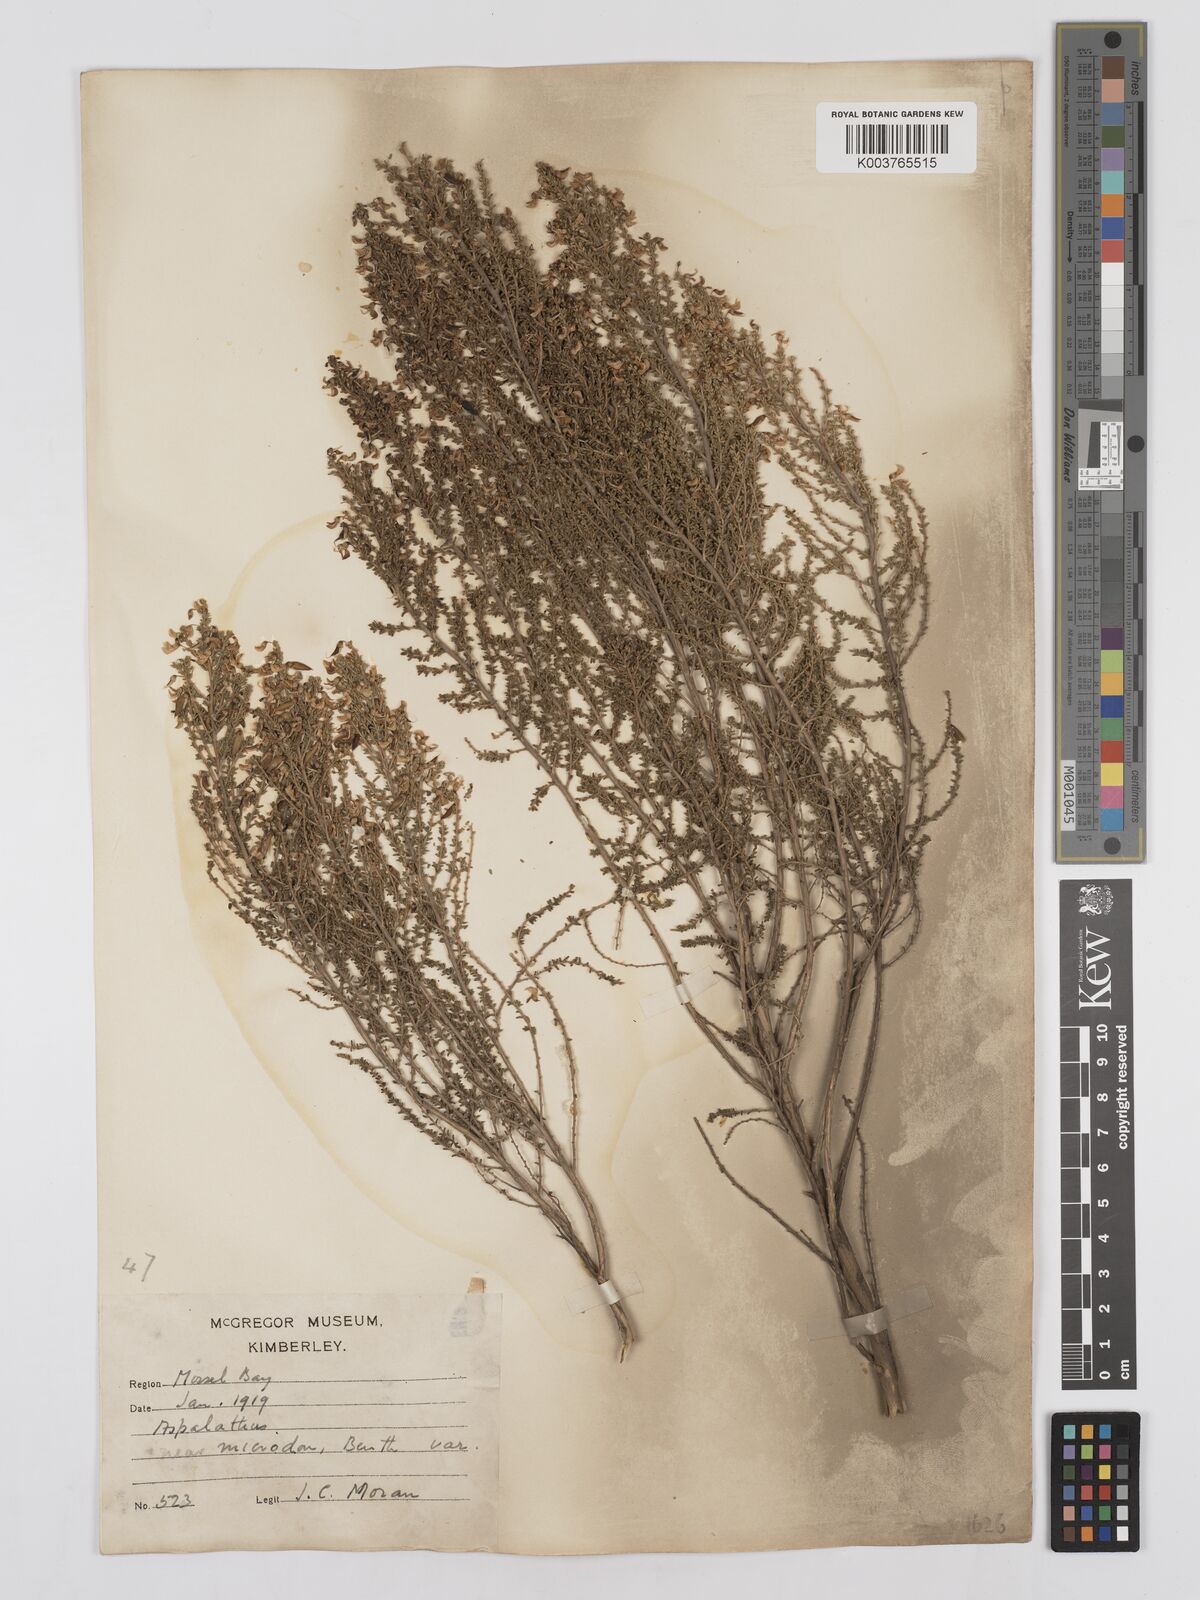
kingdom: Plantae
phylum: Tracheophyta
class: Magnoliopsida
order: Fabales
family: Fabaceae
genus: Aspalathus
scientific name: Aspalathus lactea
